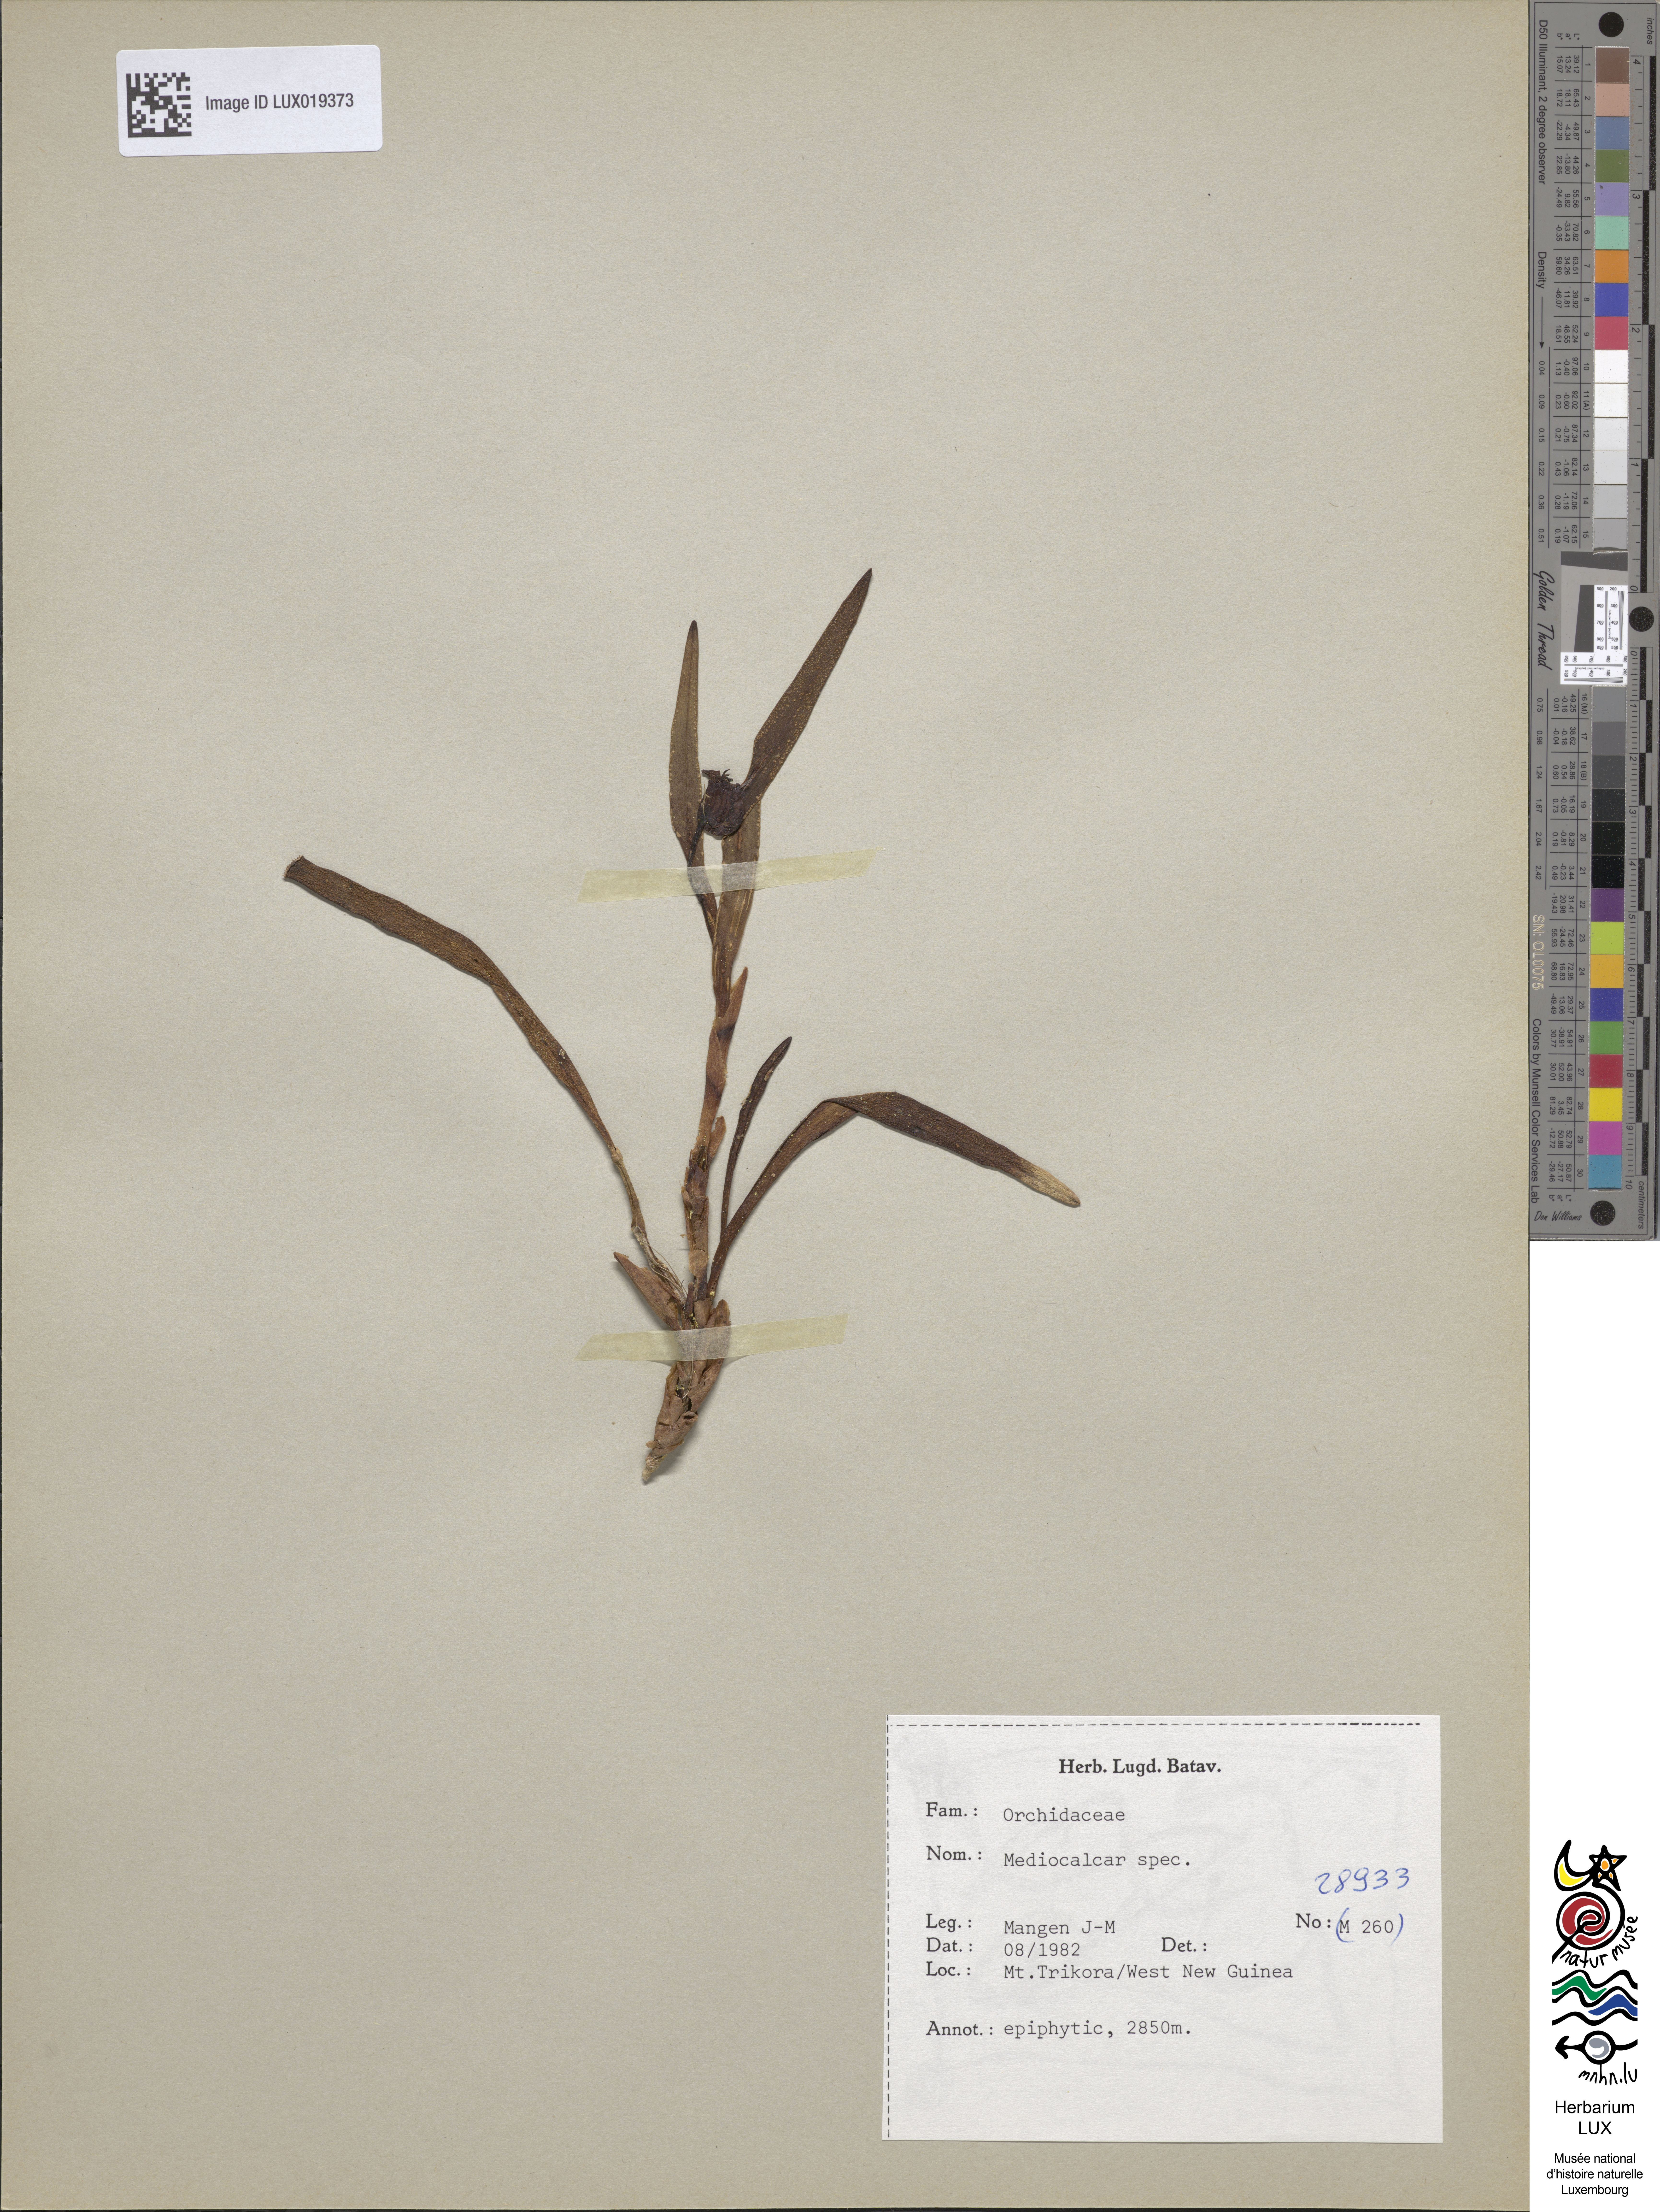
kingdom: Plantae
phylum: Tracheophyta
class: Liliopsida
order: Asparagales
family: Orchidaceae
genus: Mediocalcar
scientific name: Mediocalcar
